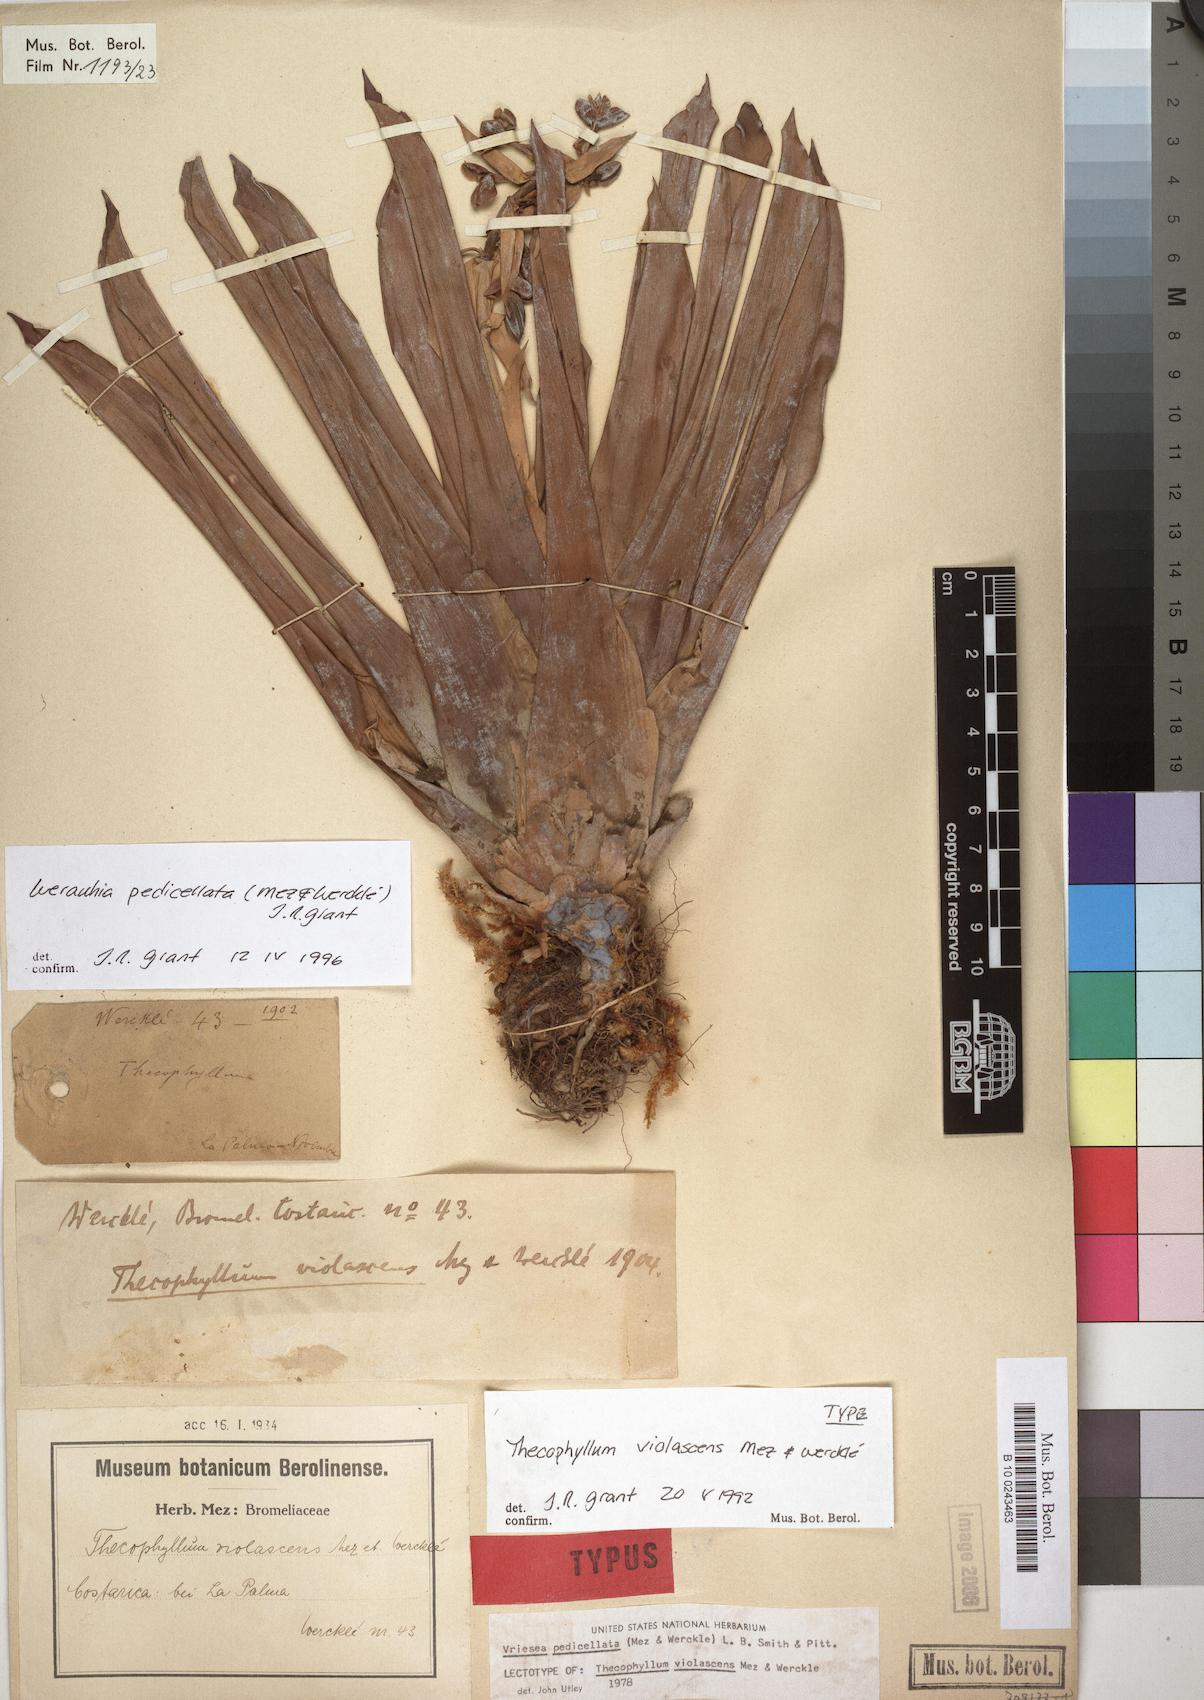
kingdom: Plantae
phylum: Tracheophyta
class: Liliopsida
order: Poales
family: Bromeliaceae
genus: Werauhia
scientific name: Werauhia pedicellata
